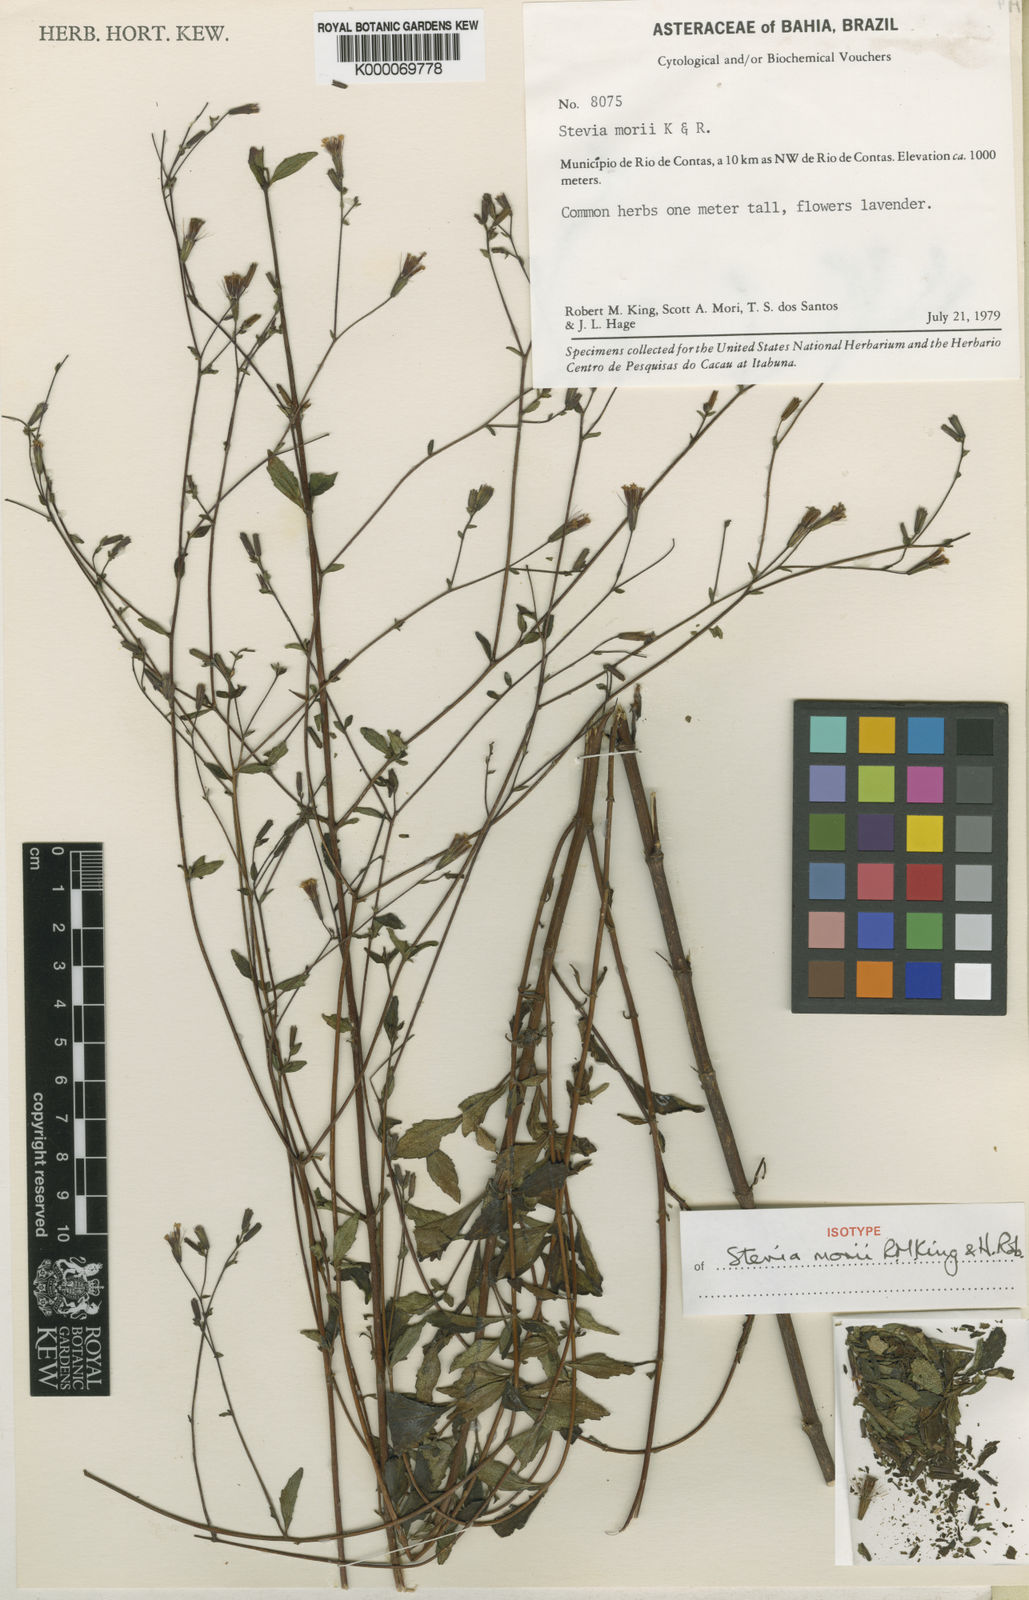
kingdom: Plantae
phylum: Tracheophyta
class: Magnoliopsida
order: Asterales
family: Asteraceae
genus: Stevia
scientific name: Stevia morii
